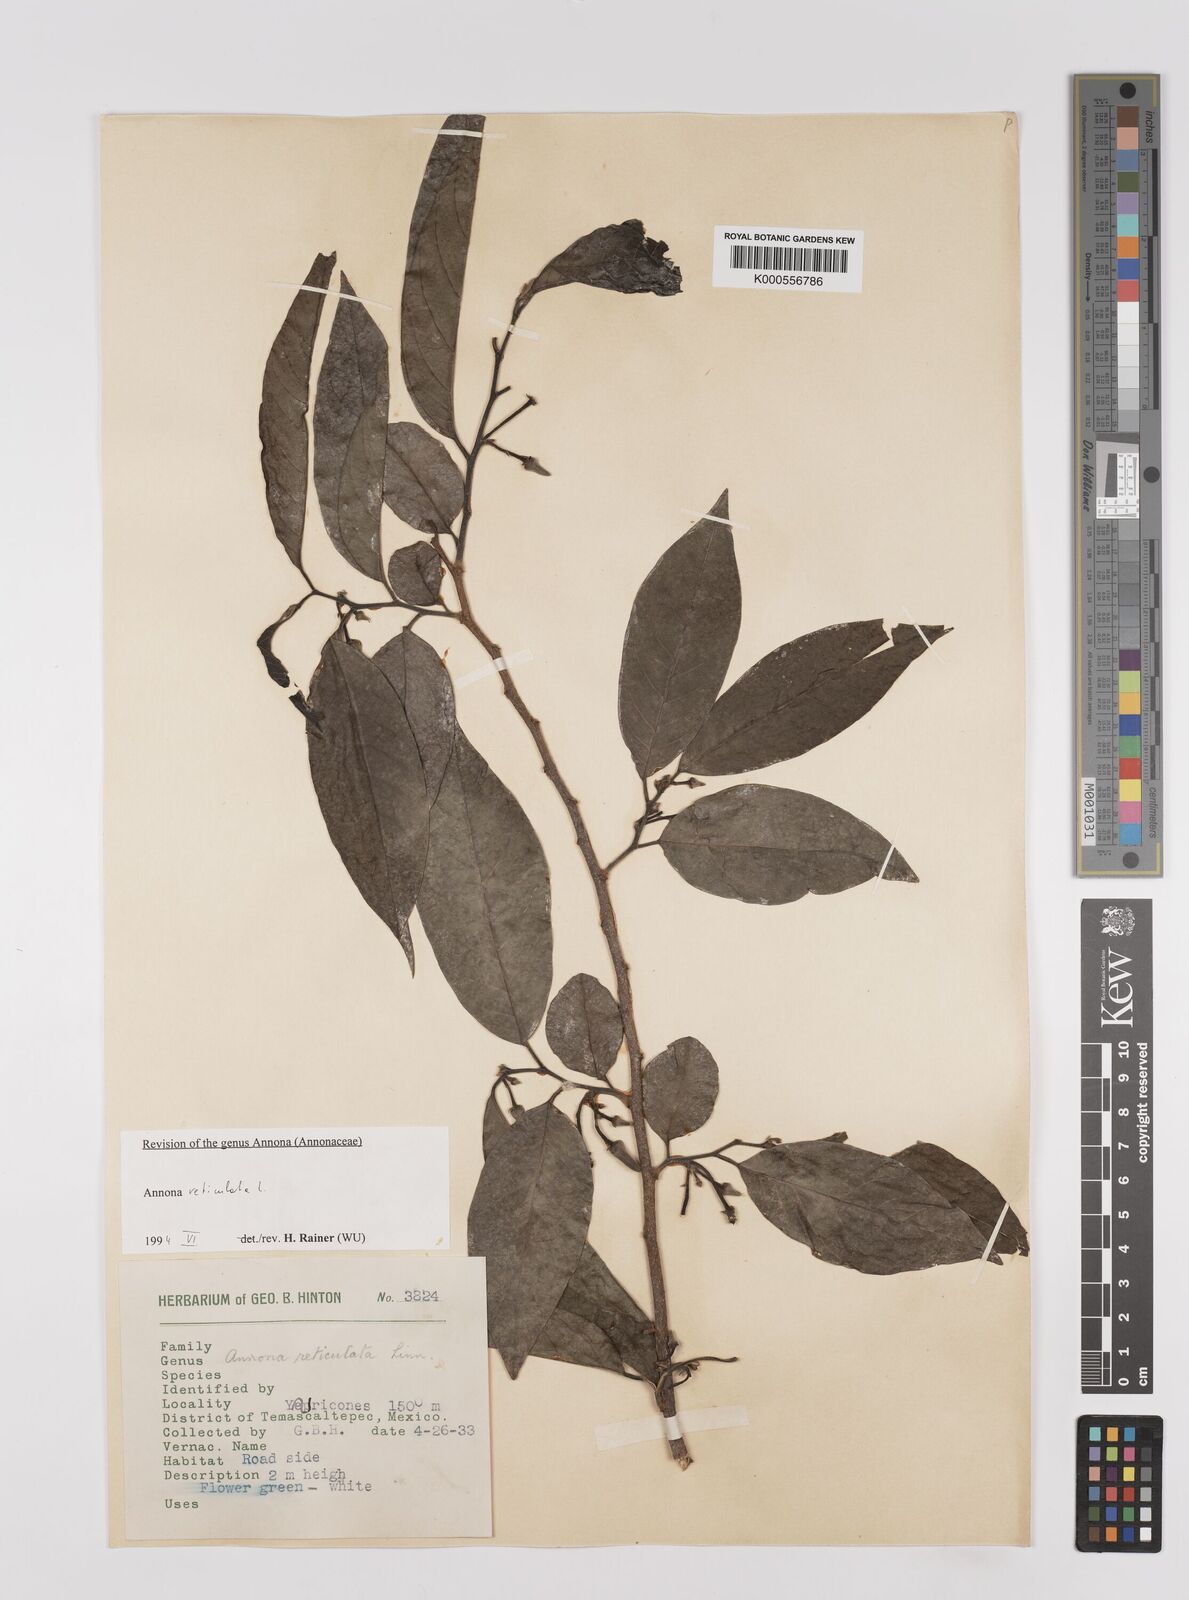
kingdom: Plantae
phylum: Tracheophyta
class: Magnoliopsida
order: Magnoliales
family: Annonaceae
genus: Annona
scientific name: Annona reticulata
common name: Custard apple
